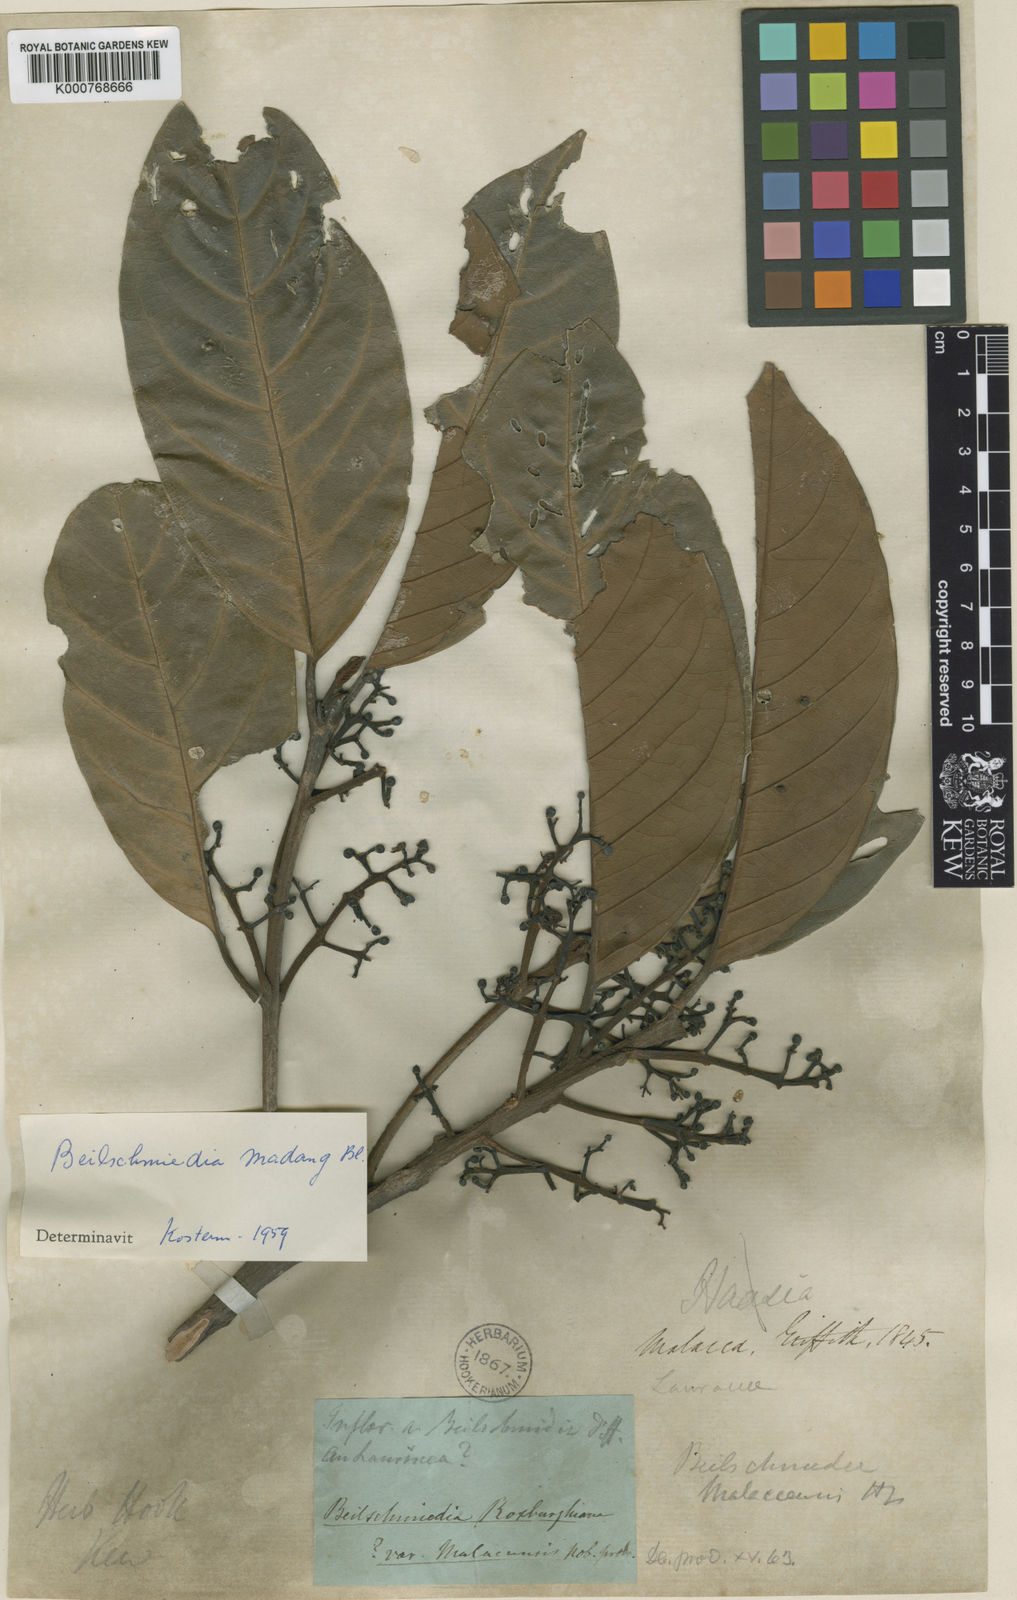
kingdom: Plantae
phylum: Tracheophyta
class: Magnoliopsida
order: Laurales
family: Lauraceae
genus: Beilschmiedia
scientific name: Beilschmiedia madang
